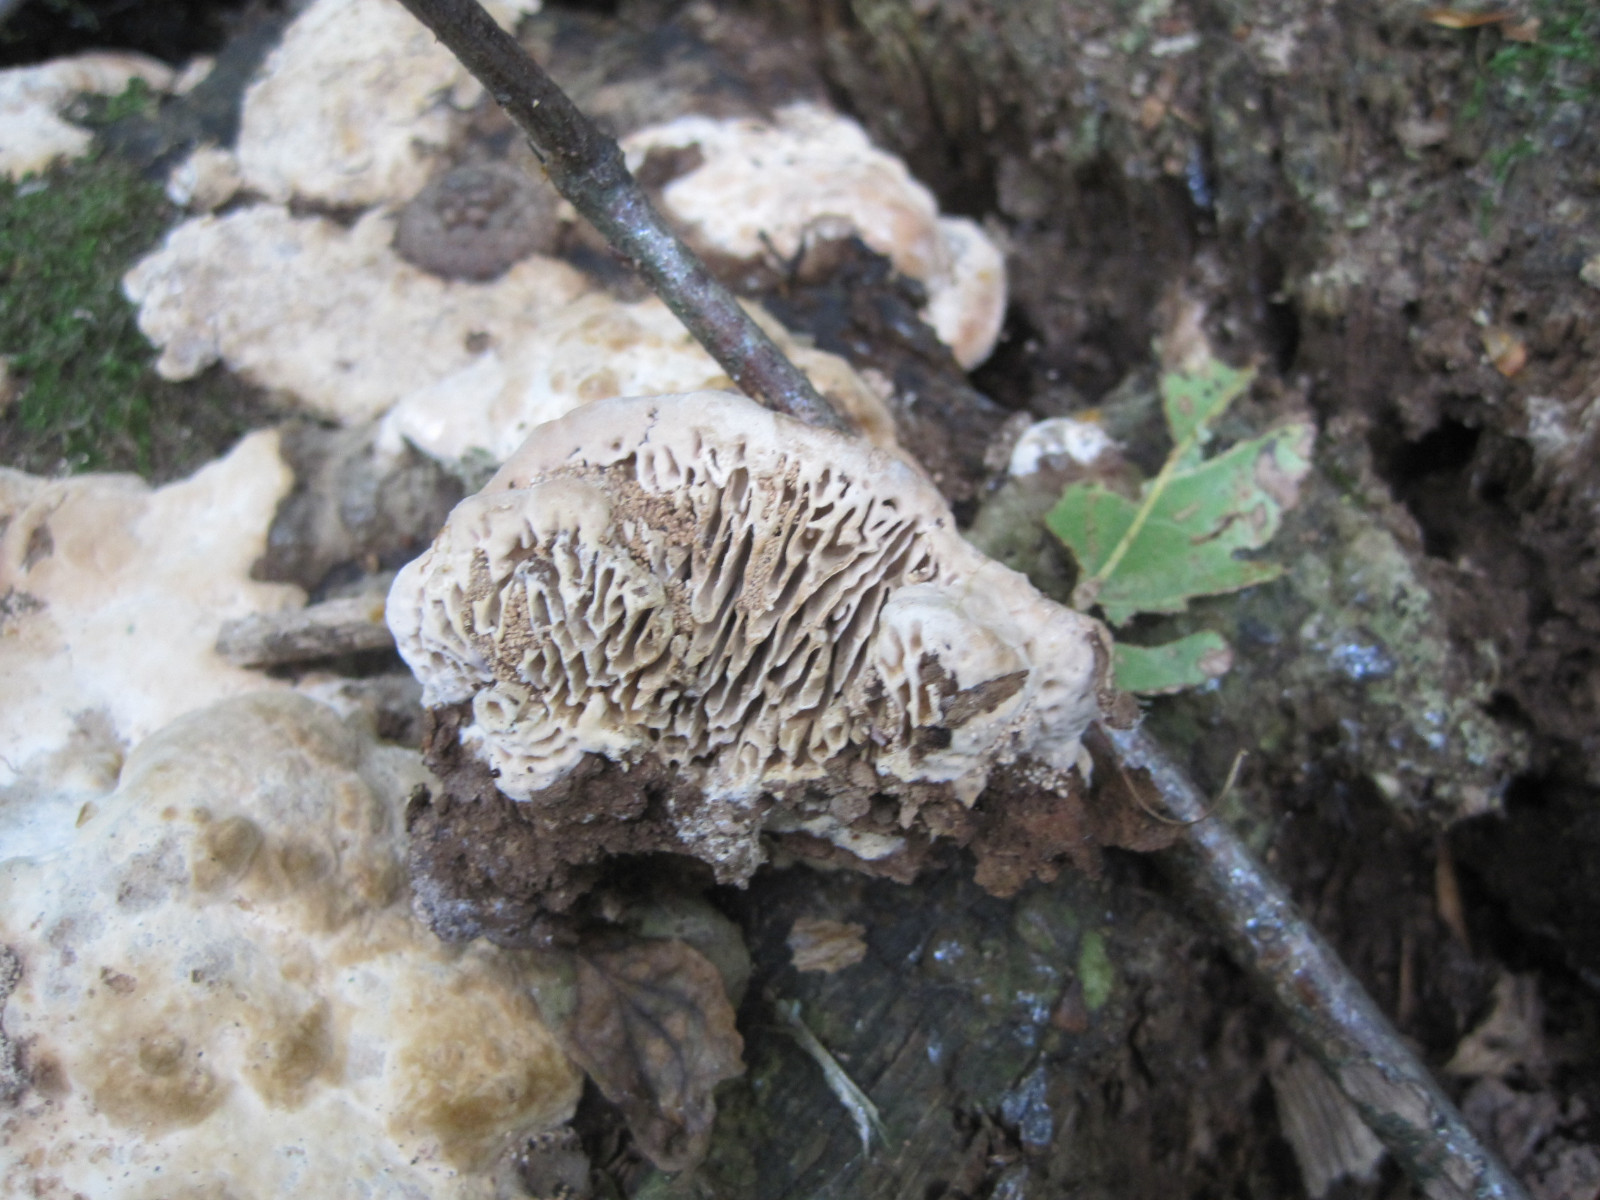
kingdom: Fungi
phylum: Basidiomycota
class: Agaricomycetes
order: Polyporales
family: Fomitopsidaceae
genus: Daedalea
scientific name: Daedalea quercina
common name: ege-labyrintsvamp
